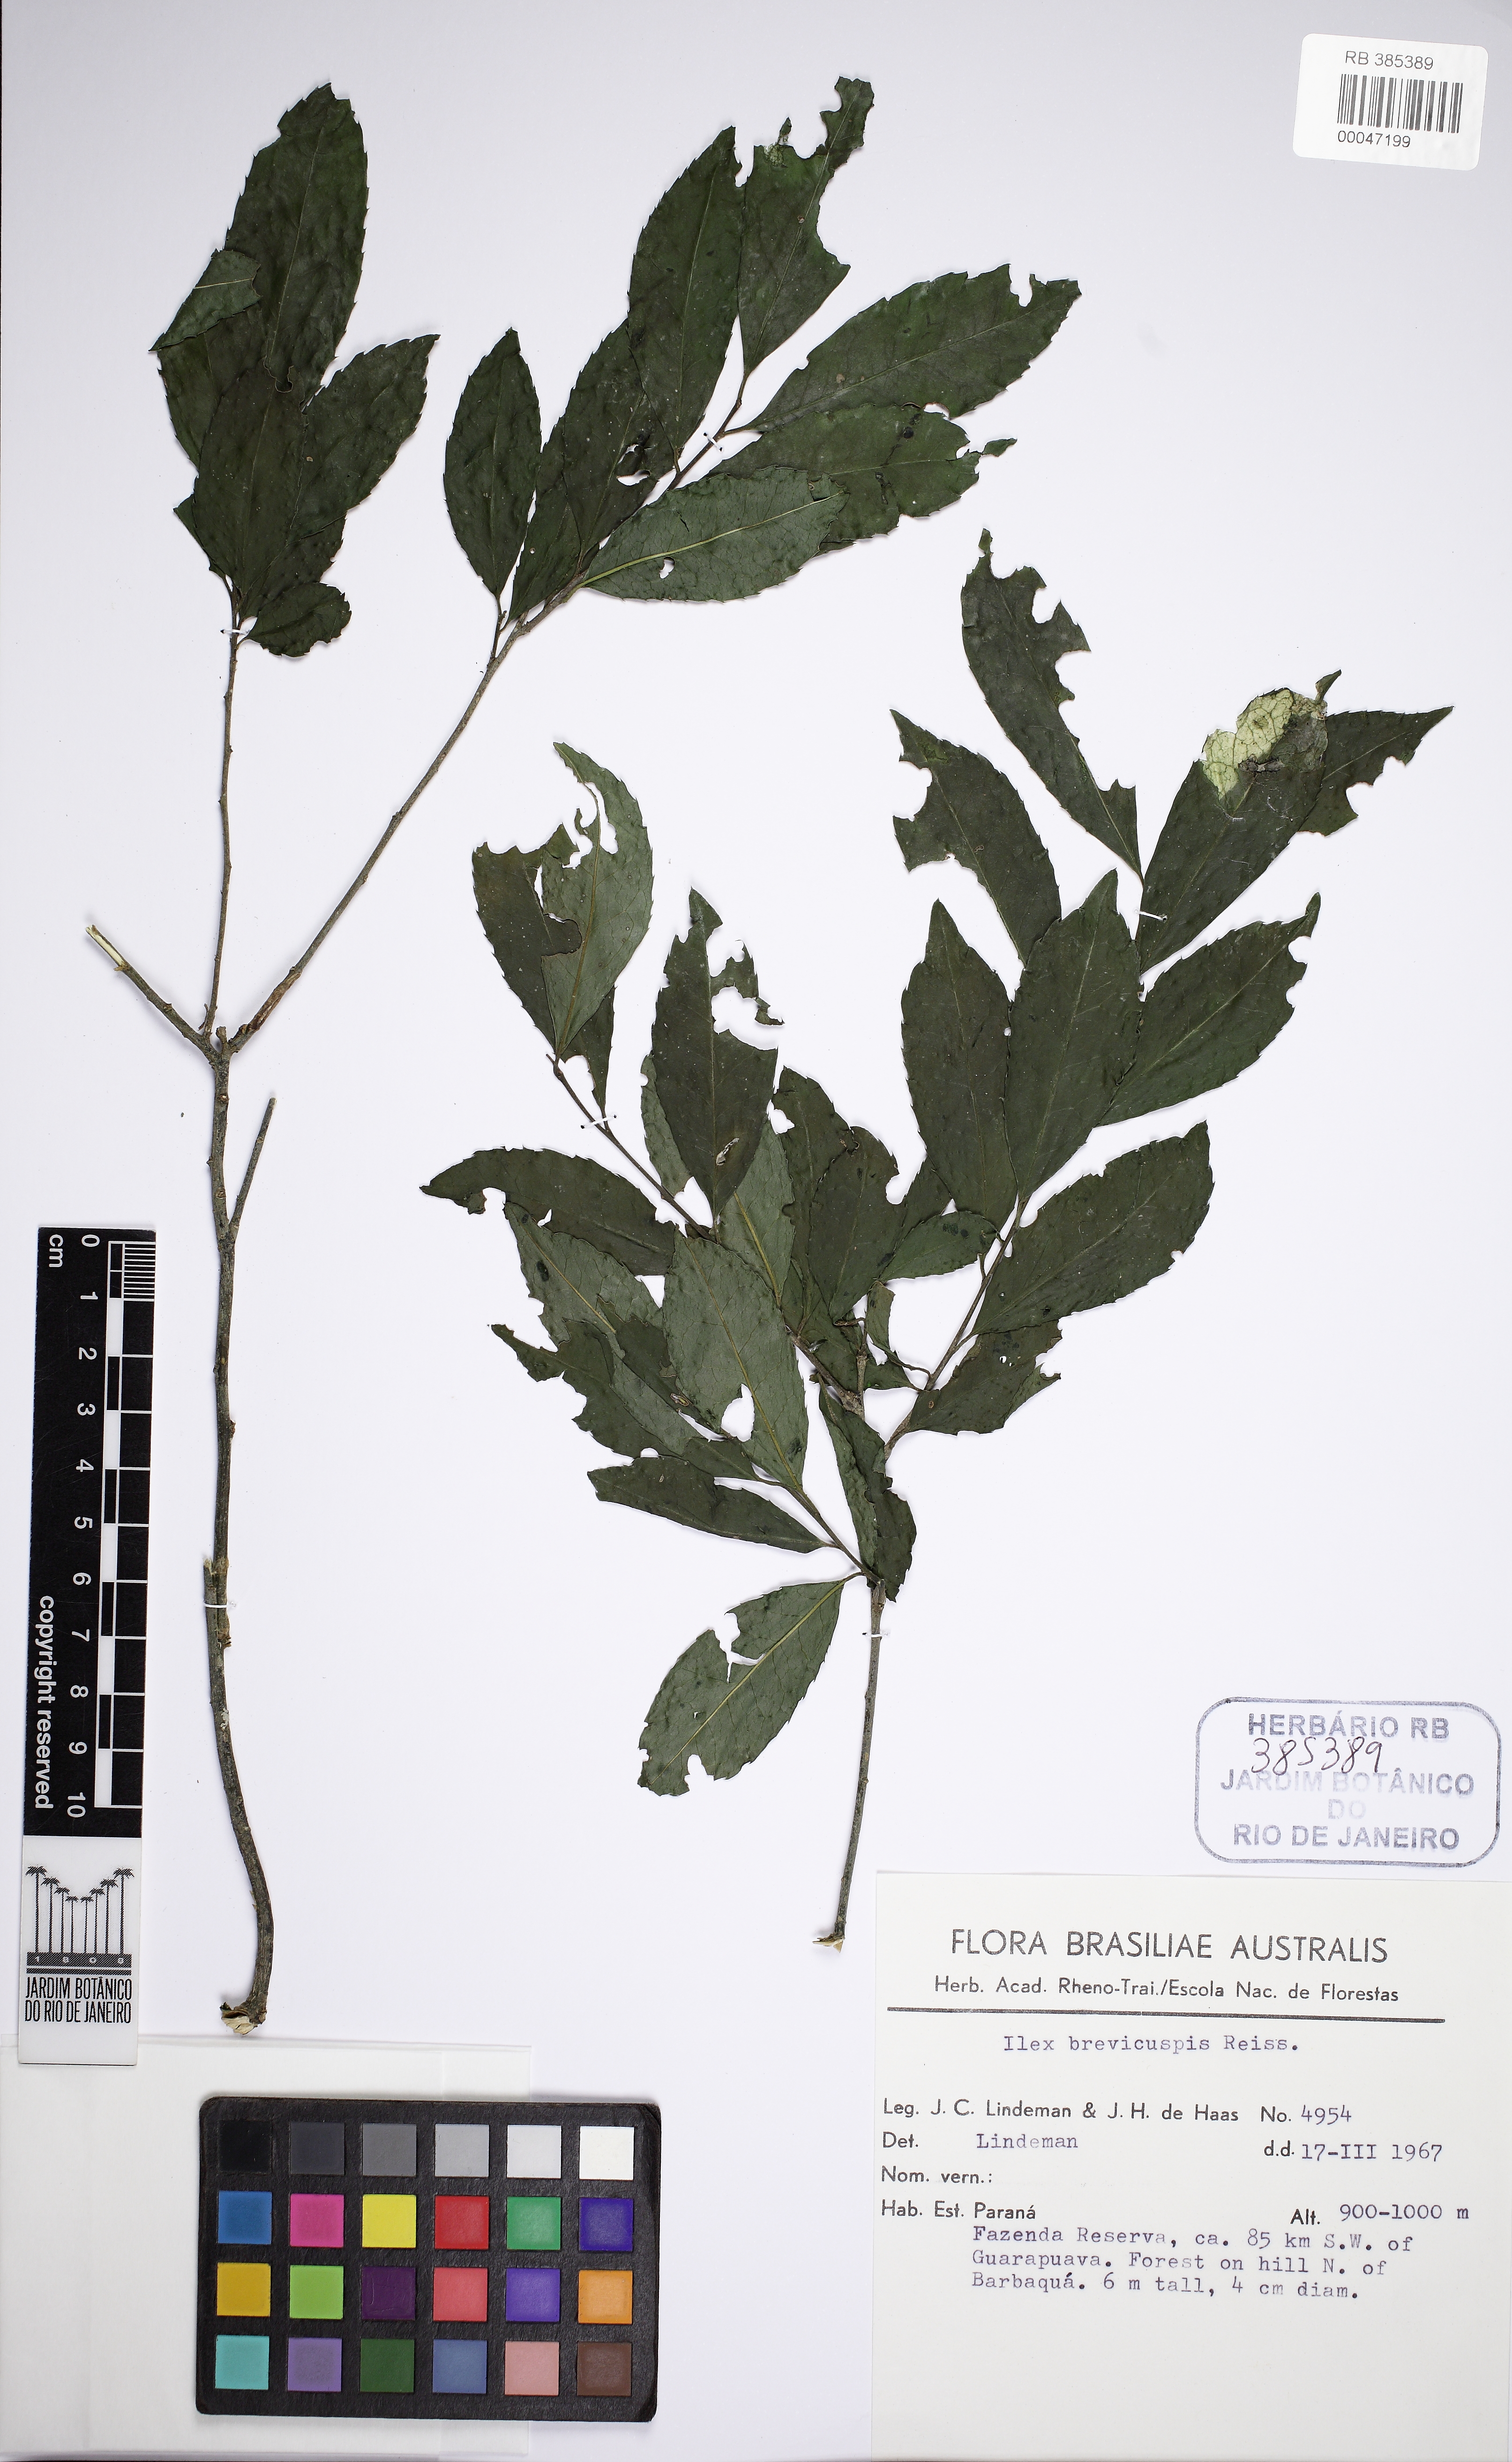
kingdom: Plantae
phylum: Tracheophyta
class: Magnoliopsida
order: Aquifoliales
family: Aquifoliaceae
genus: Ilex
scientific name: Ilex brevicuspis
